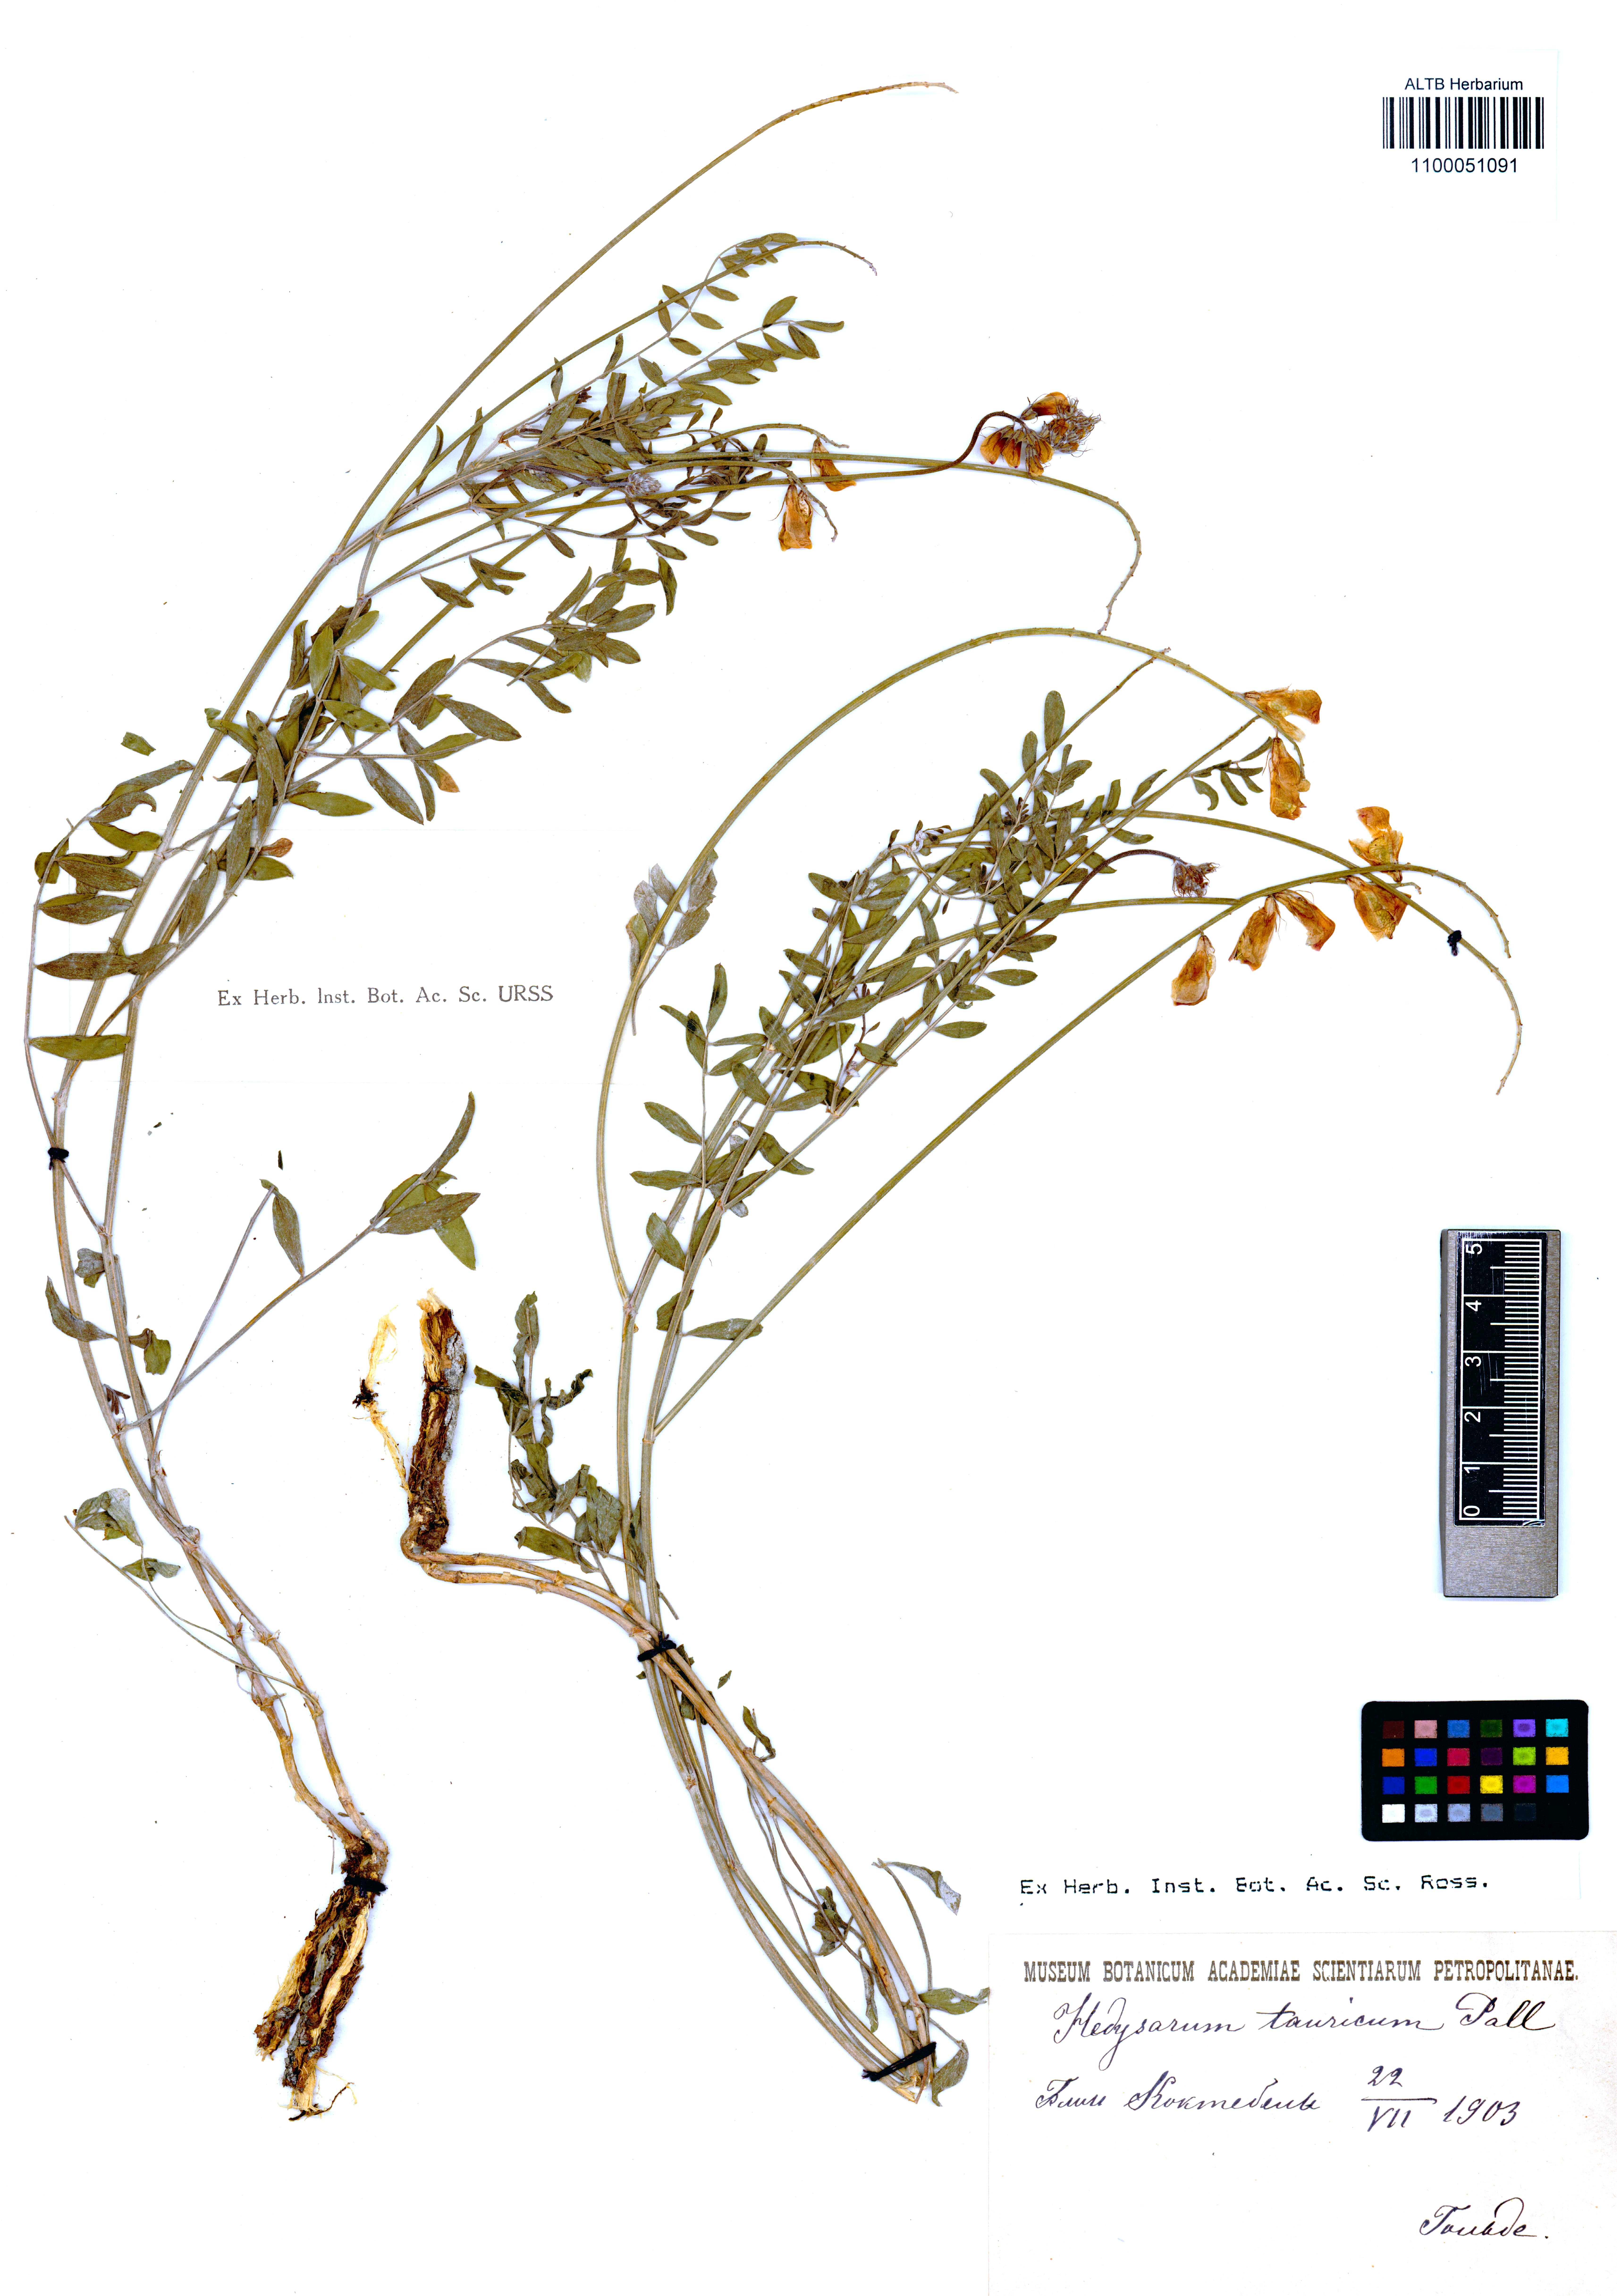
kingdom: Plantae
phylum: Tracheophyta
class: Magnoliopsida
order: Fabales
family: Fabaceae
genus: Hedysarum
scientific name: Hedysarum tauricum
